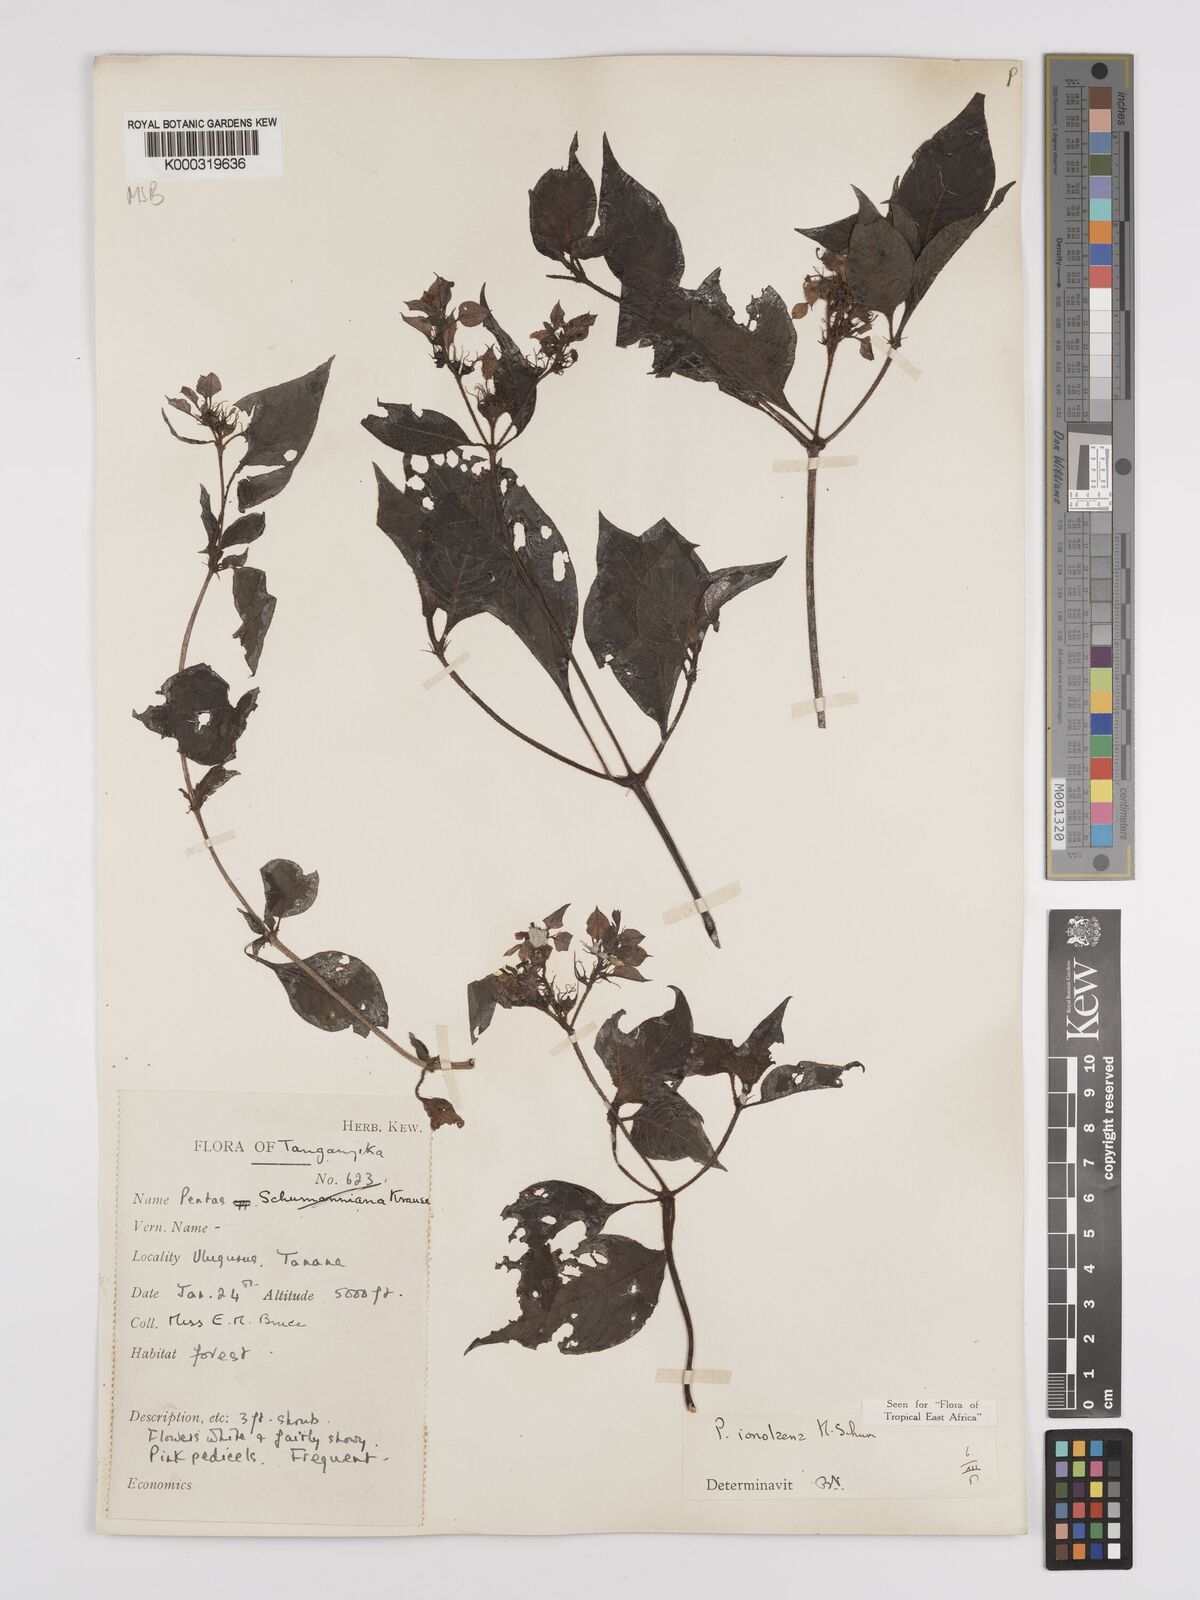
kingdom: Plantae
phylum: Tracheophyta
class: Magnoliopsida
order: Gentianales
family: Rubiaceae
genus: Phyllopentas
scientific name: Phyllopentas ionolaena
